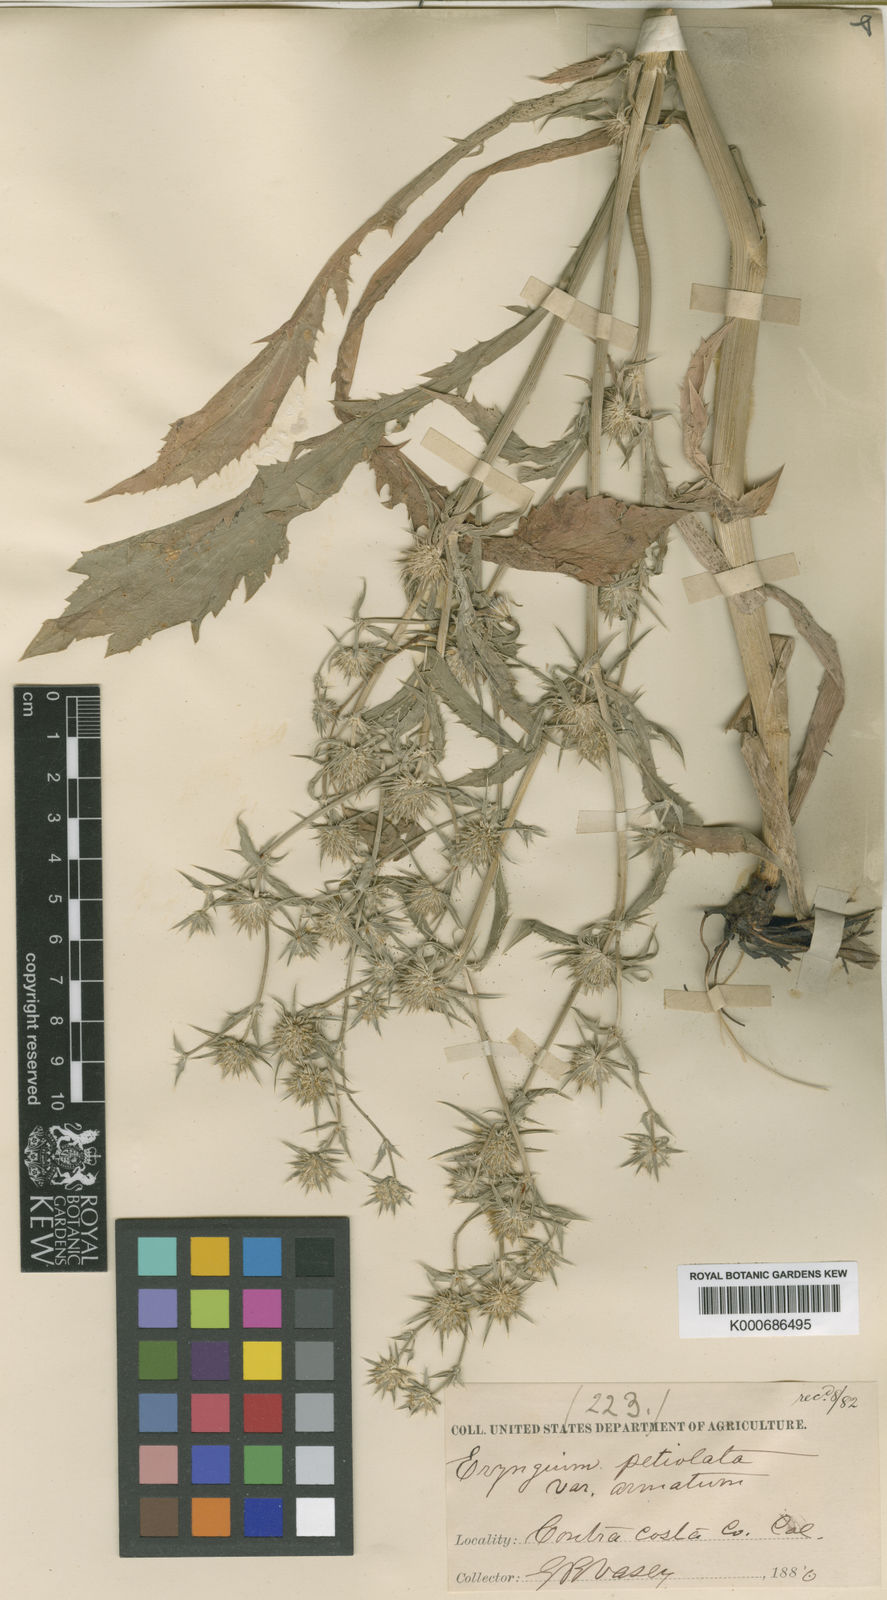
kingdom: Plantae
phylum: Tracheophyta
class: Magnoliopsida
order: Apiales
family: Apiaceae
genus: Eryngium
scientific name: Eryngium vaseyi
